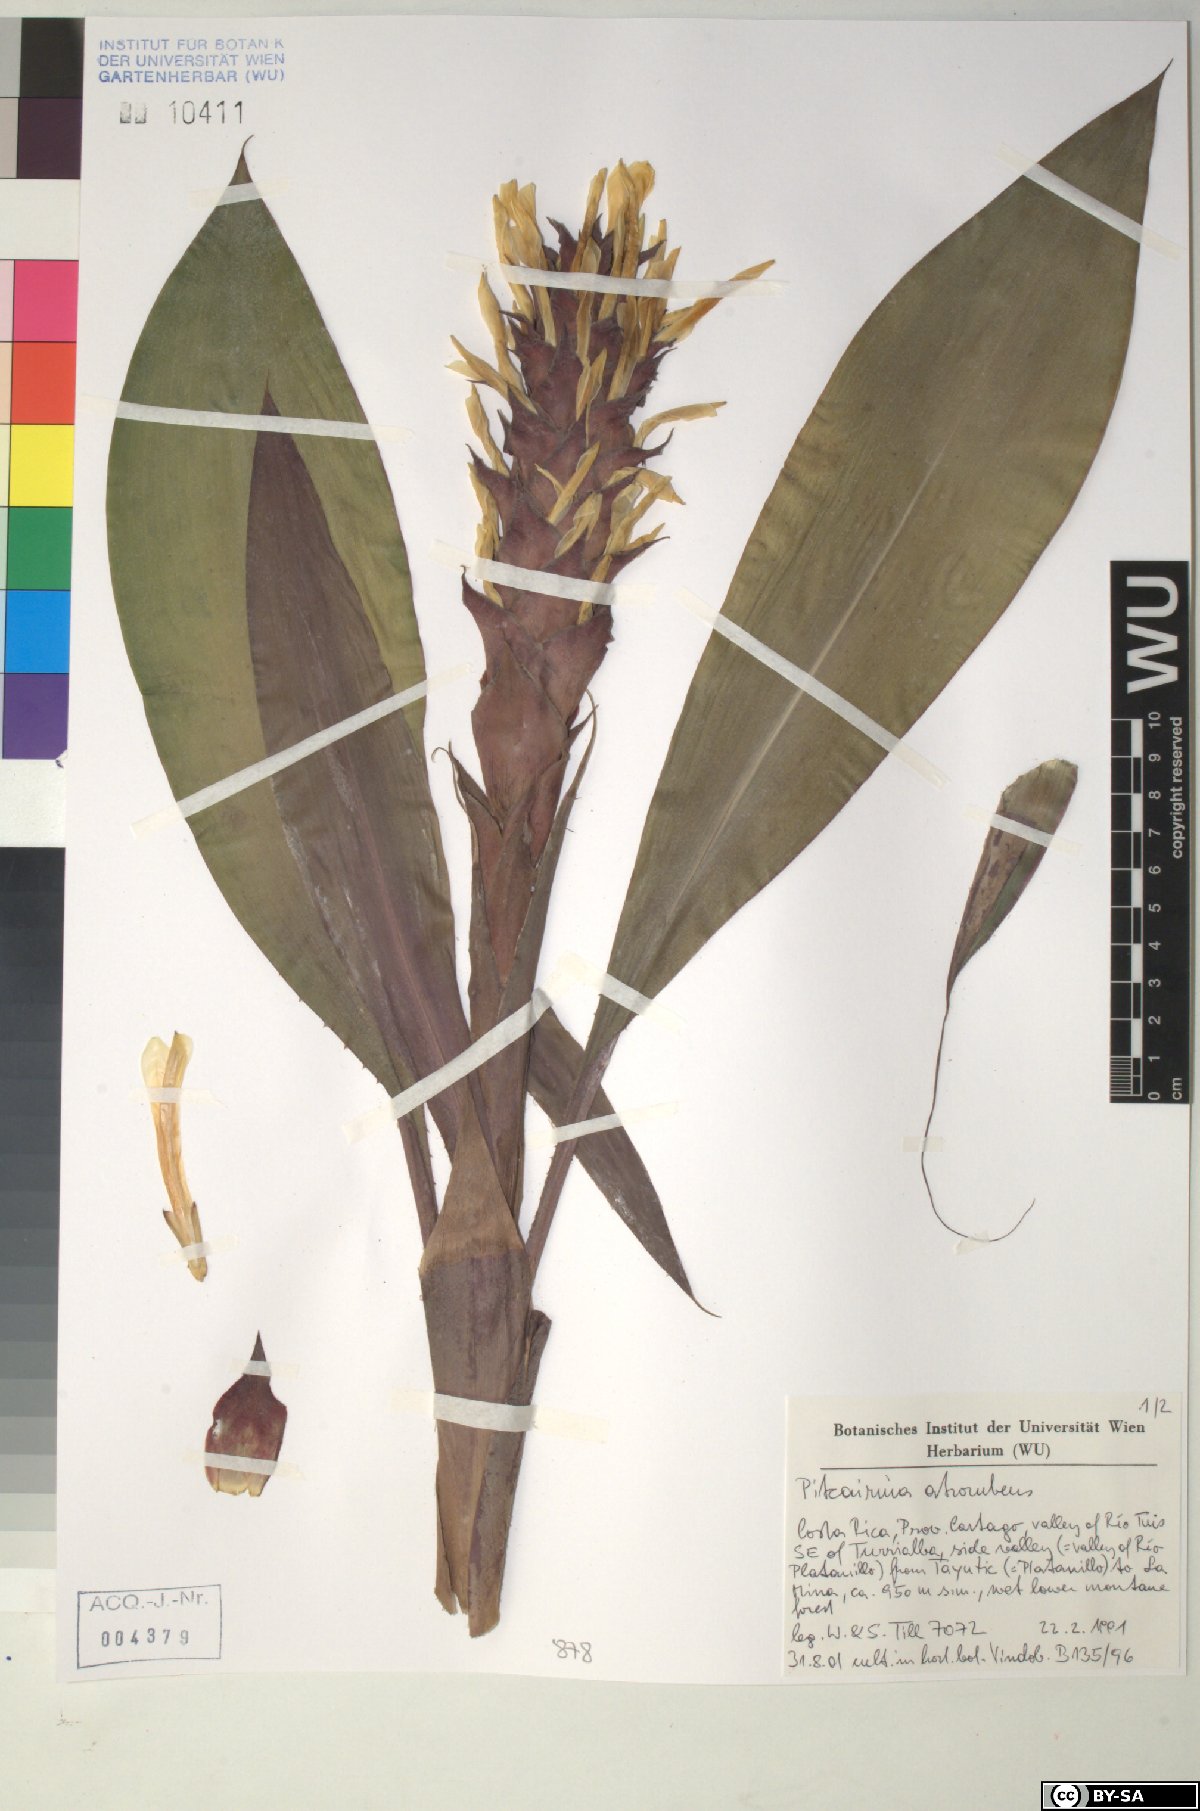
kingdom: Plantae
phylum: Tracheophyta
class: Liliopsida
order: Poales
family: Bromeliaceae
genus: Pitcairnia
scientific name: Pitcairnia atrorubens
